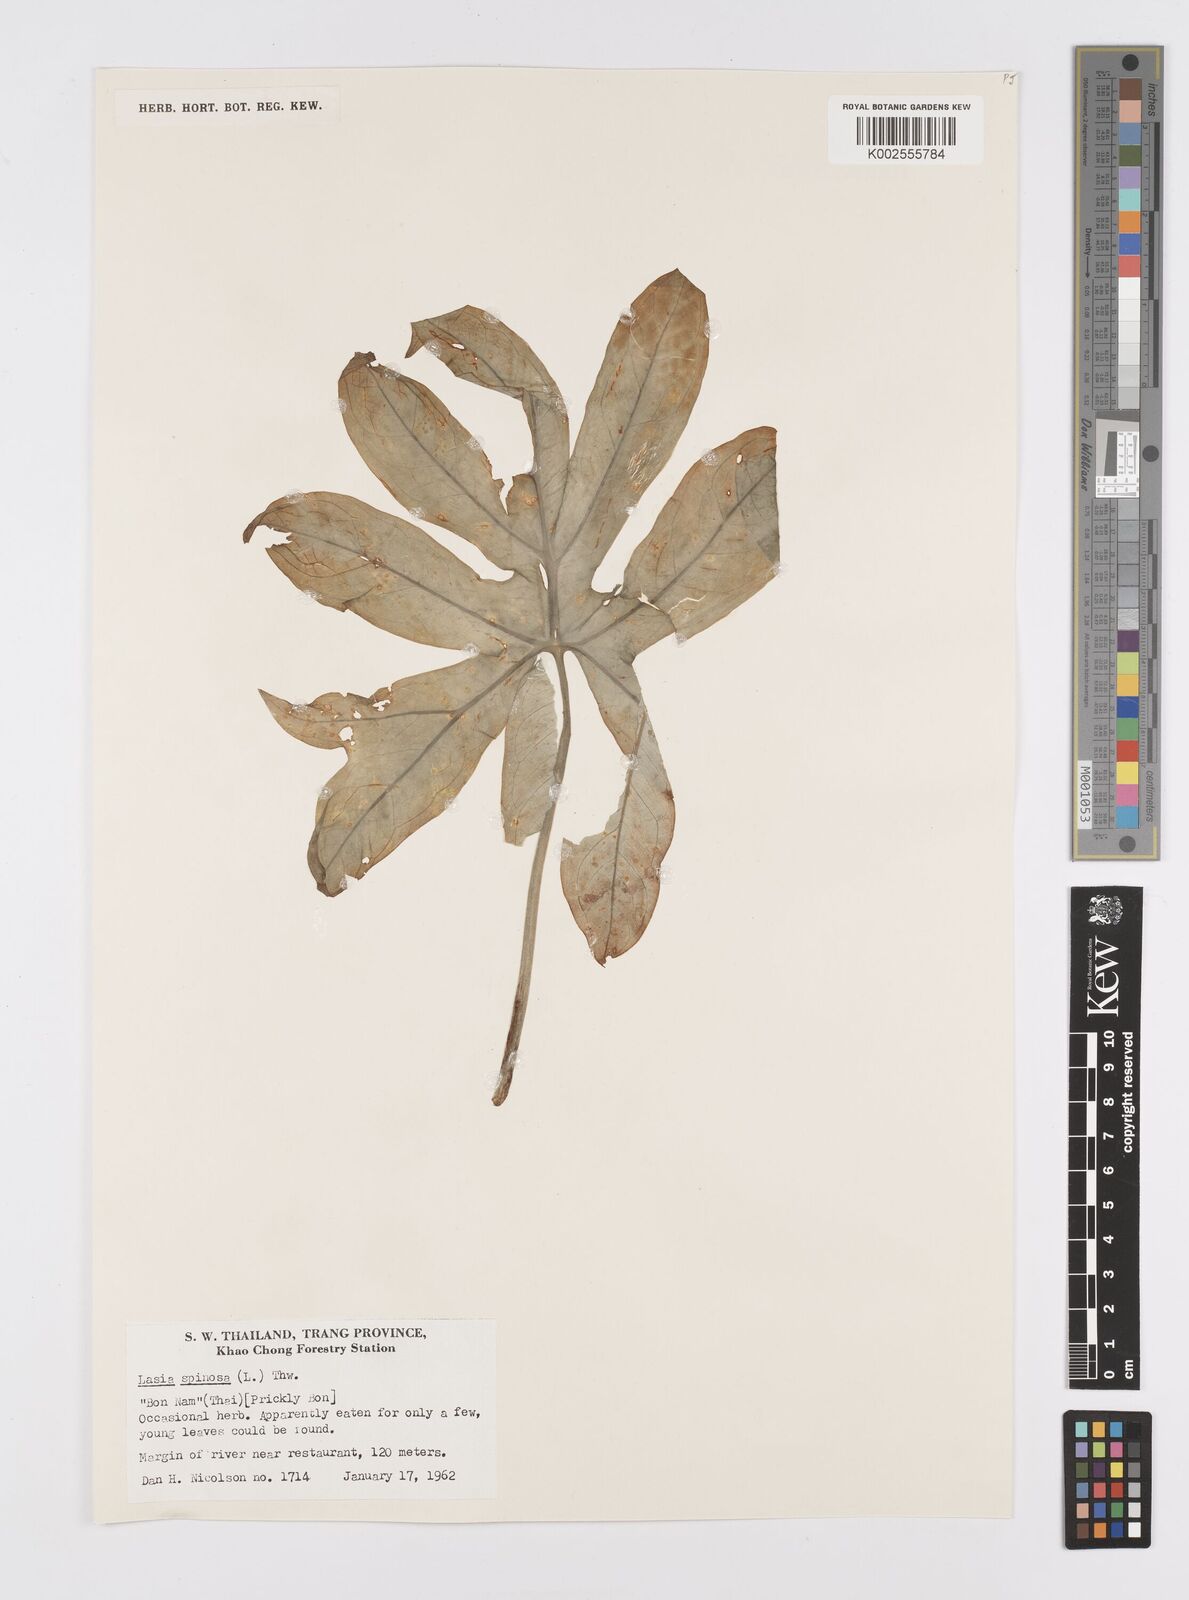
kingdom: Plantae
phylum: Tracheophyta
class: Liliopsida
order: Alismatales
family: Araceae
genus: Lasia
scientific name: Lasia spinosa
